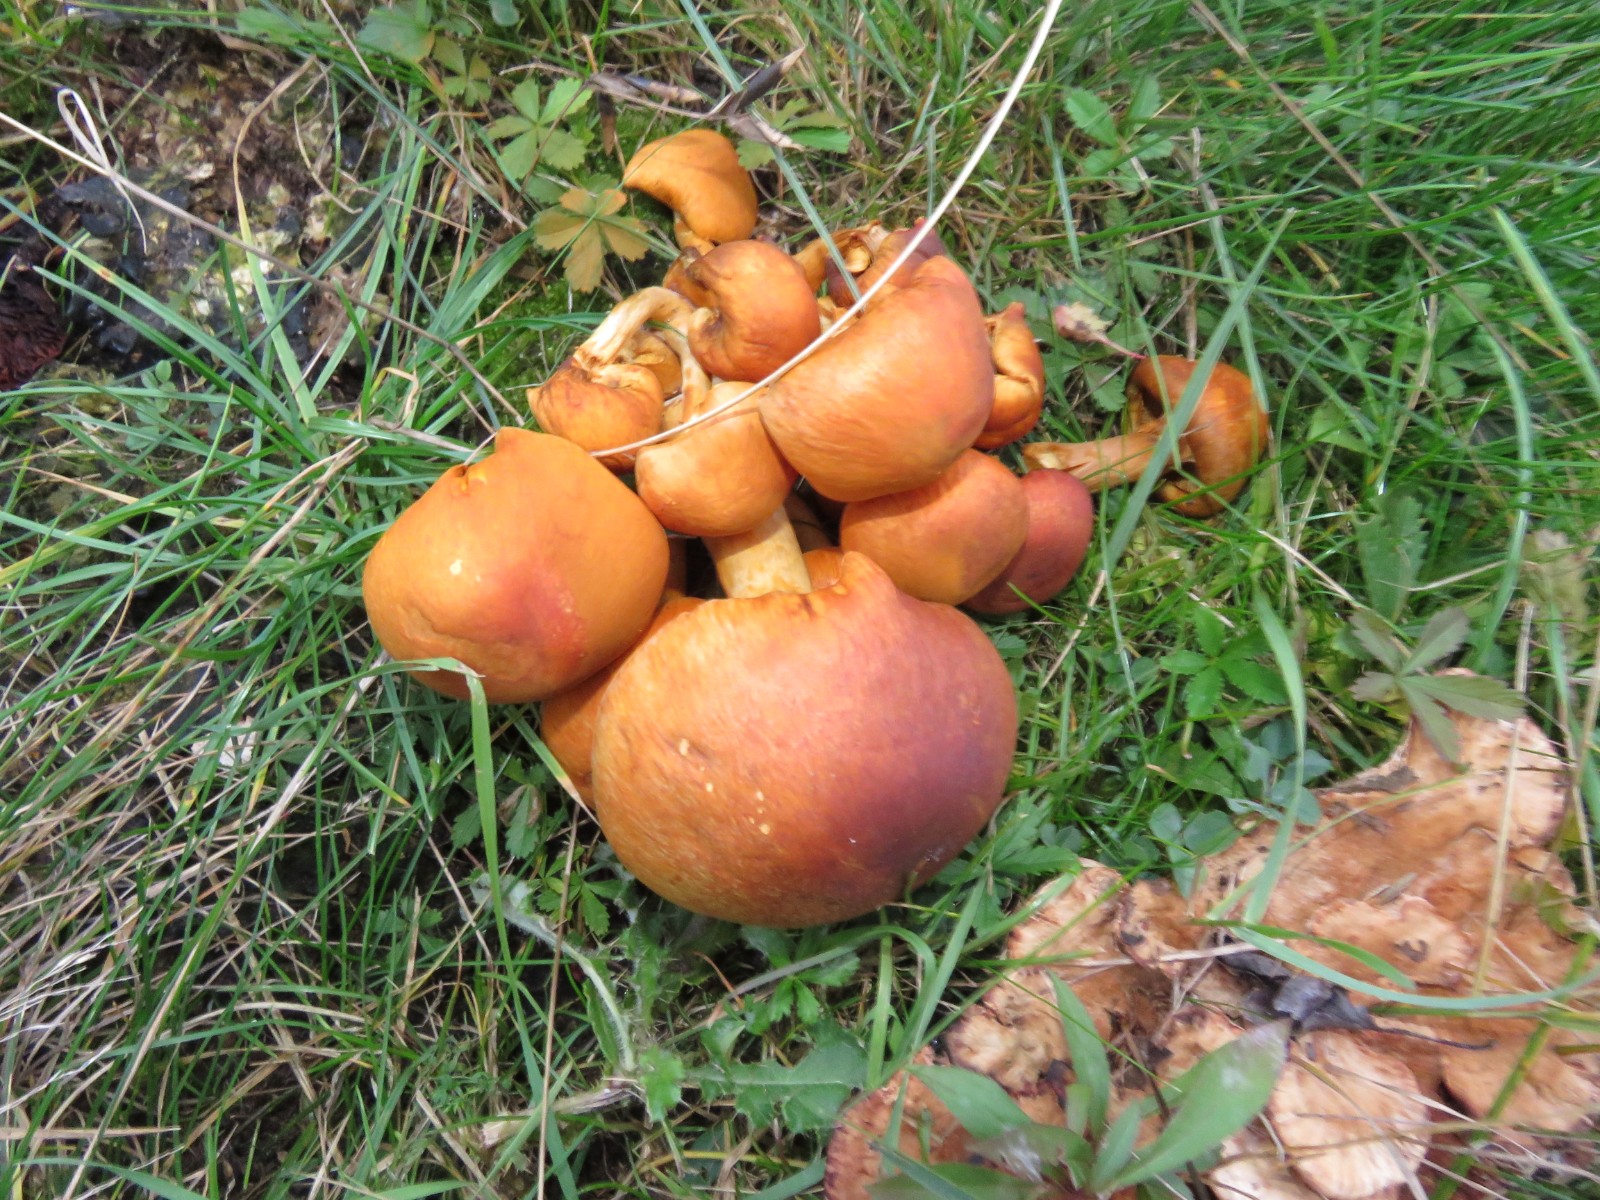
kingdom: Fungi
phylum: Basidiomycota
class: Agaricomycetes
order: Agaricales
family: Hymenogastraceae
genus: Gymnopilus
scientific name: Gymnopilus spectabilis
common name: fibret flammehat
